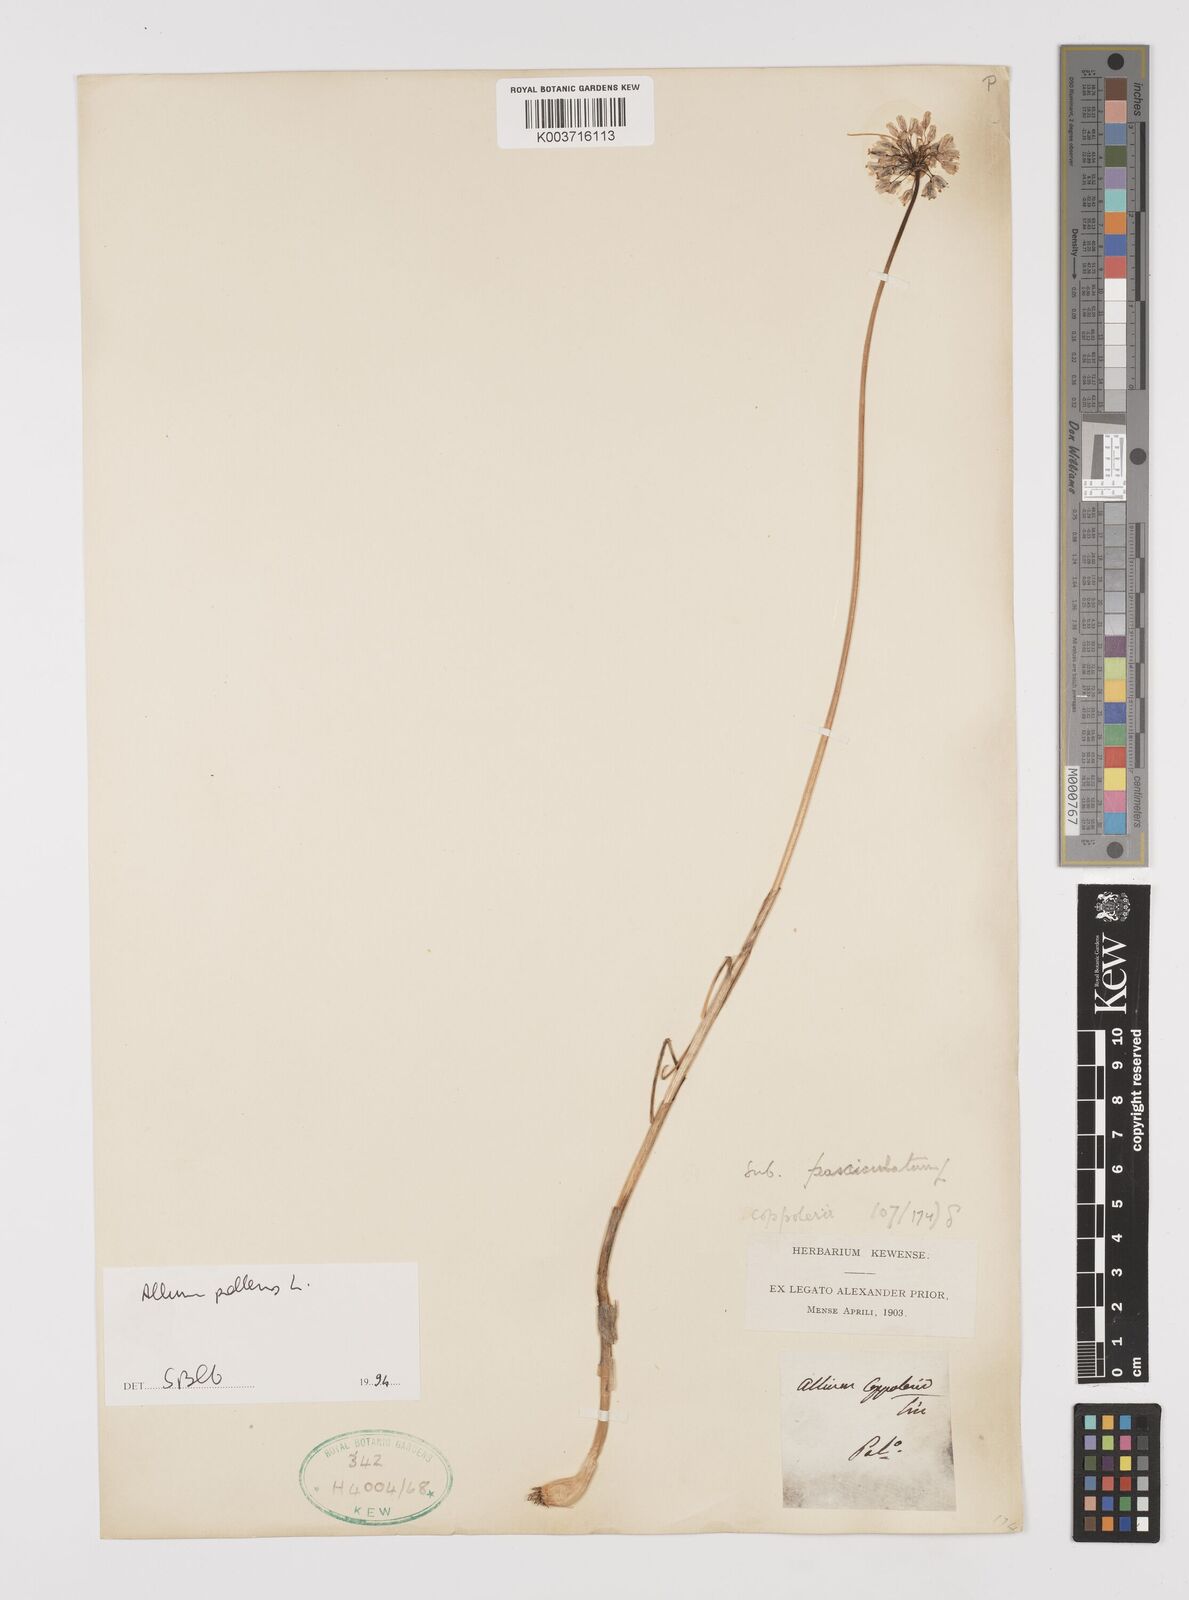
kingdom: Plantae
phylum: Tracheophyta
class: Liliopsida
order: Asparagales
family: Amaryllidaceae
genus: Allium
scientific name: Allium flavum
